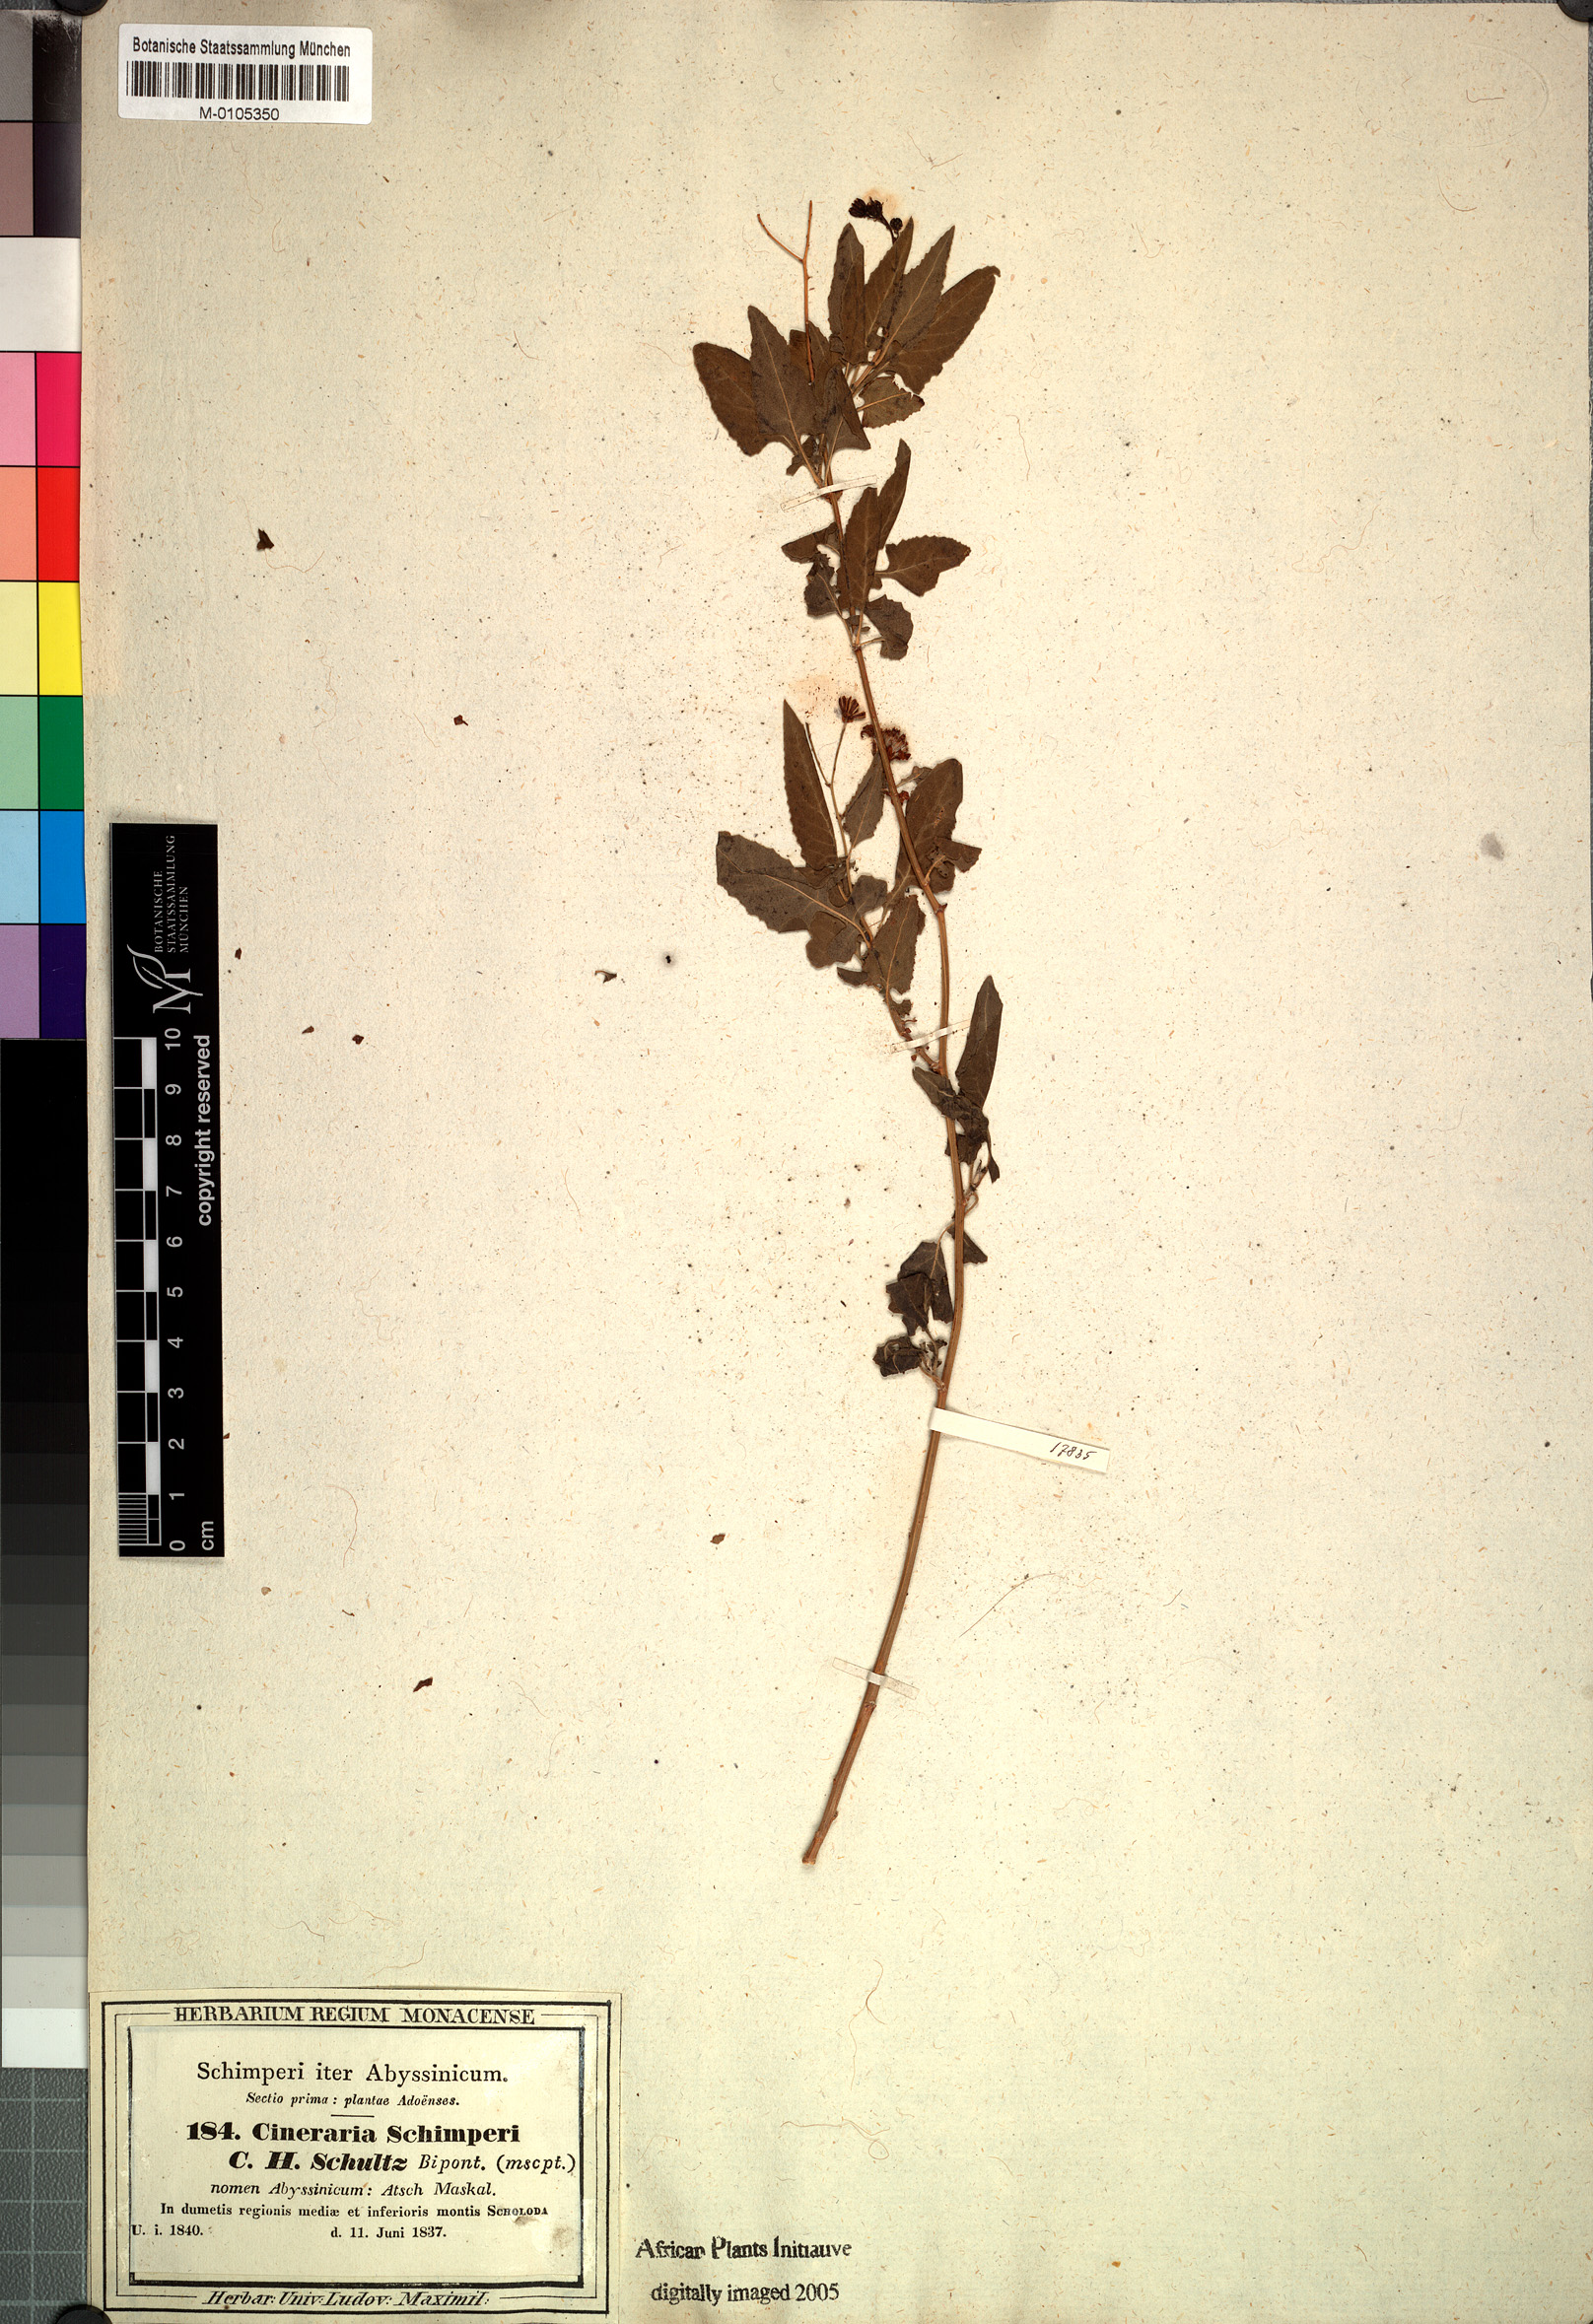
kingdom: Plantae
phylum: Tracheophyta
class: Magnoliopsida
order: Asterales
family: Asteraceae
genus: Senecio
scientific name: Senecio lyratus
